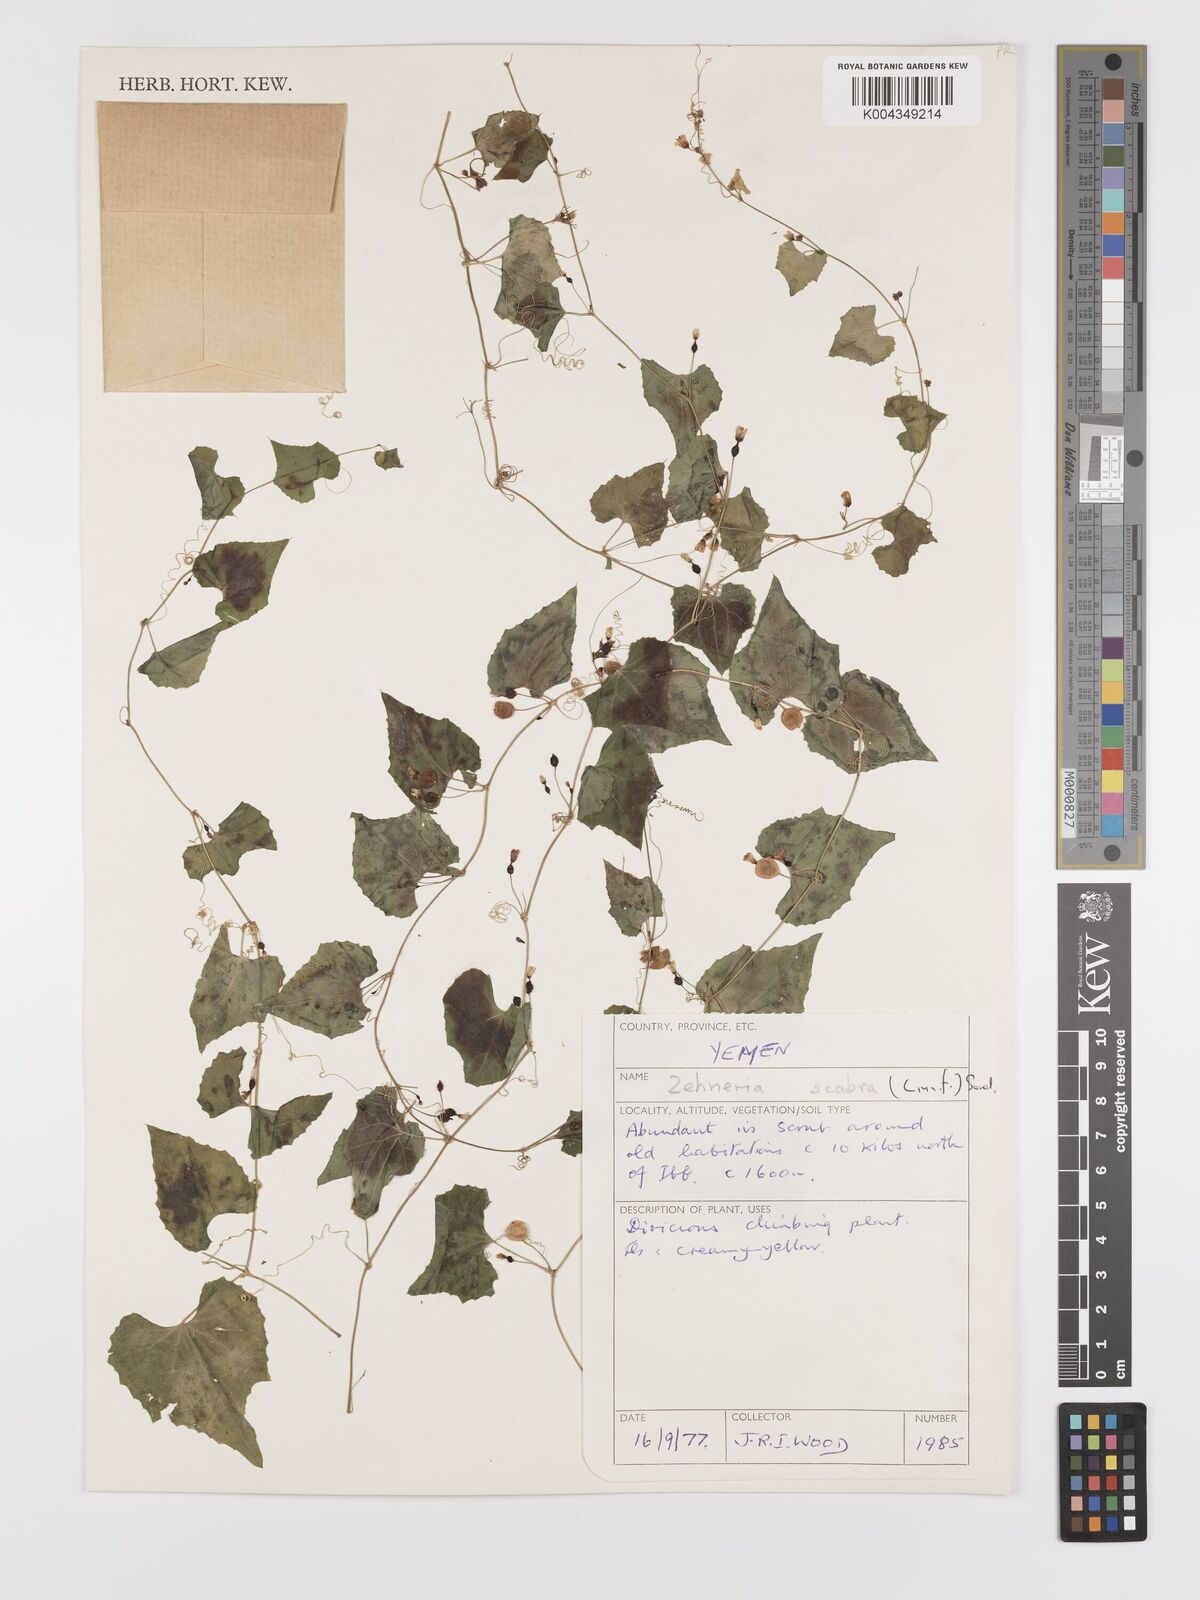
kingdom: Plantae
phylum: Tracheophyta
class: Magnoliopsida
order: Cucurbitales
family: Cucurbitaceae
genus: Zehneria
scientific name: Zehneria scabra
